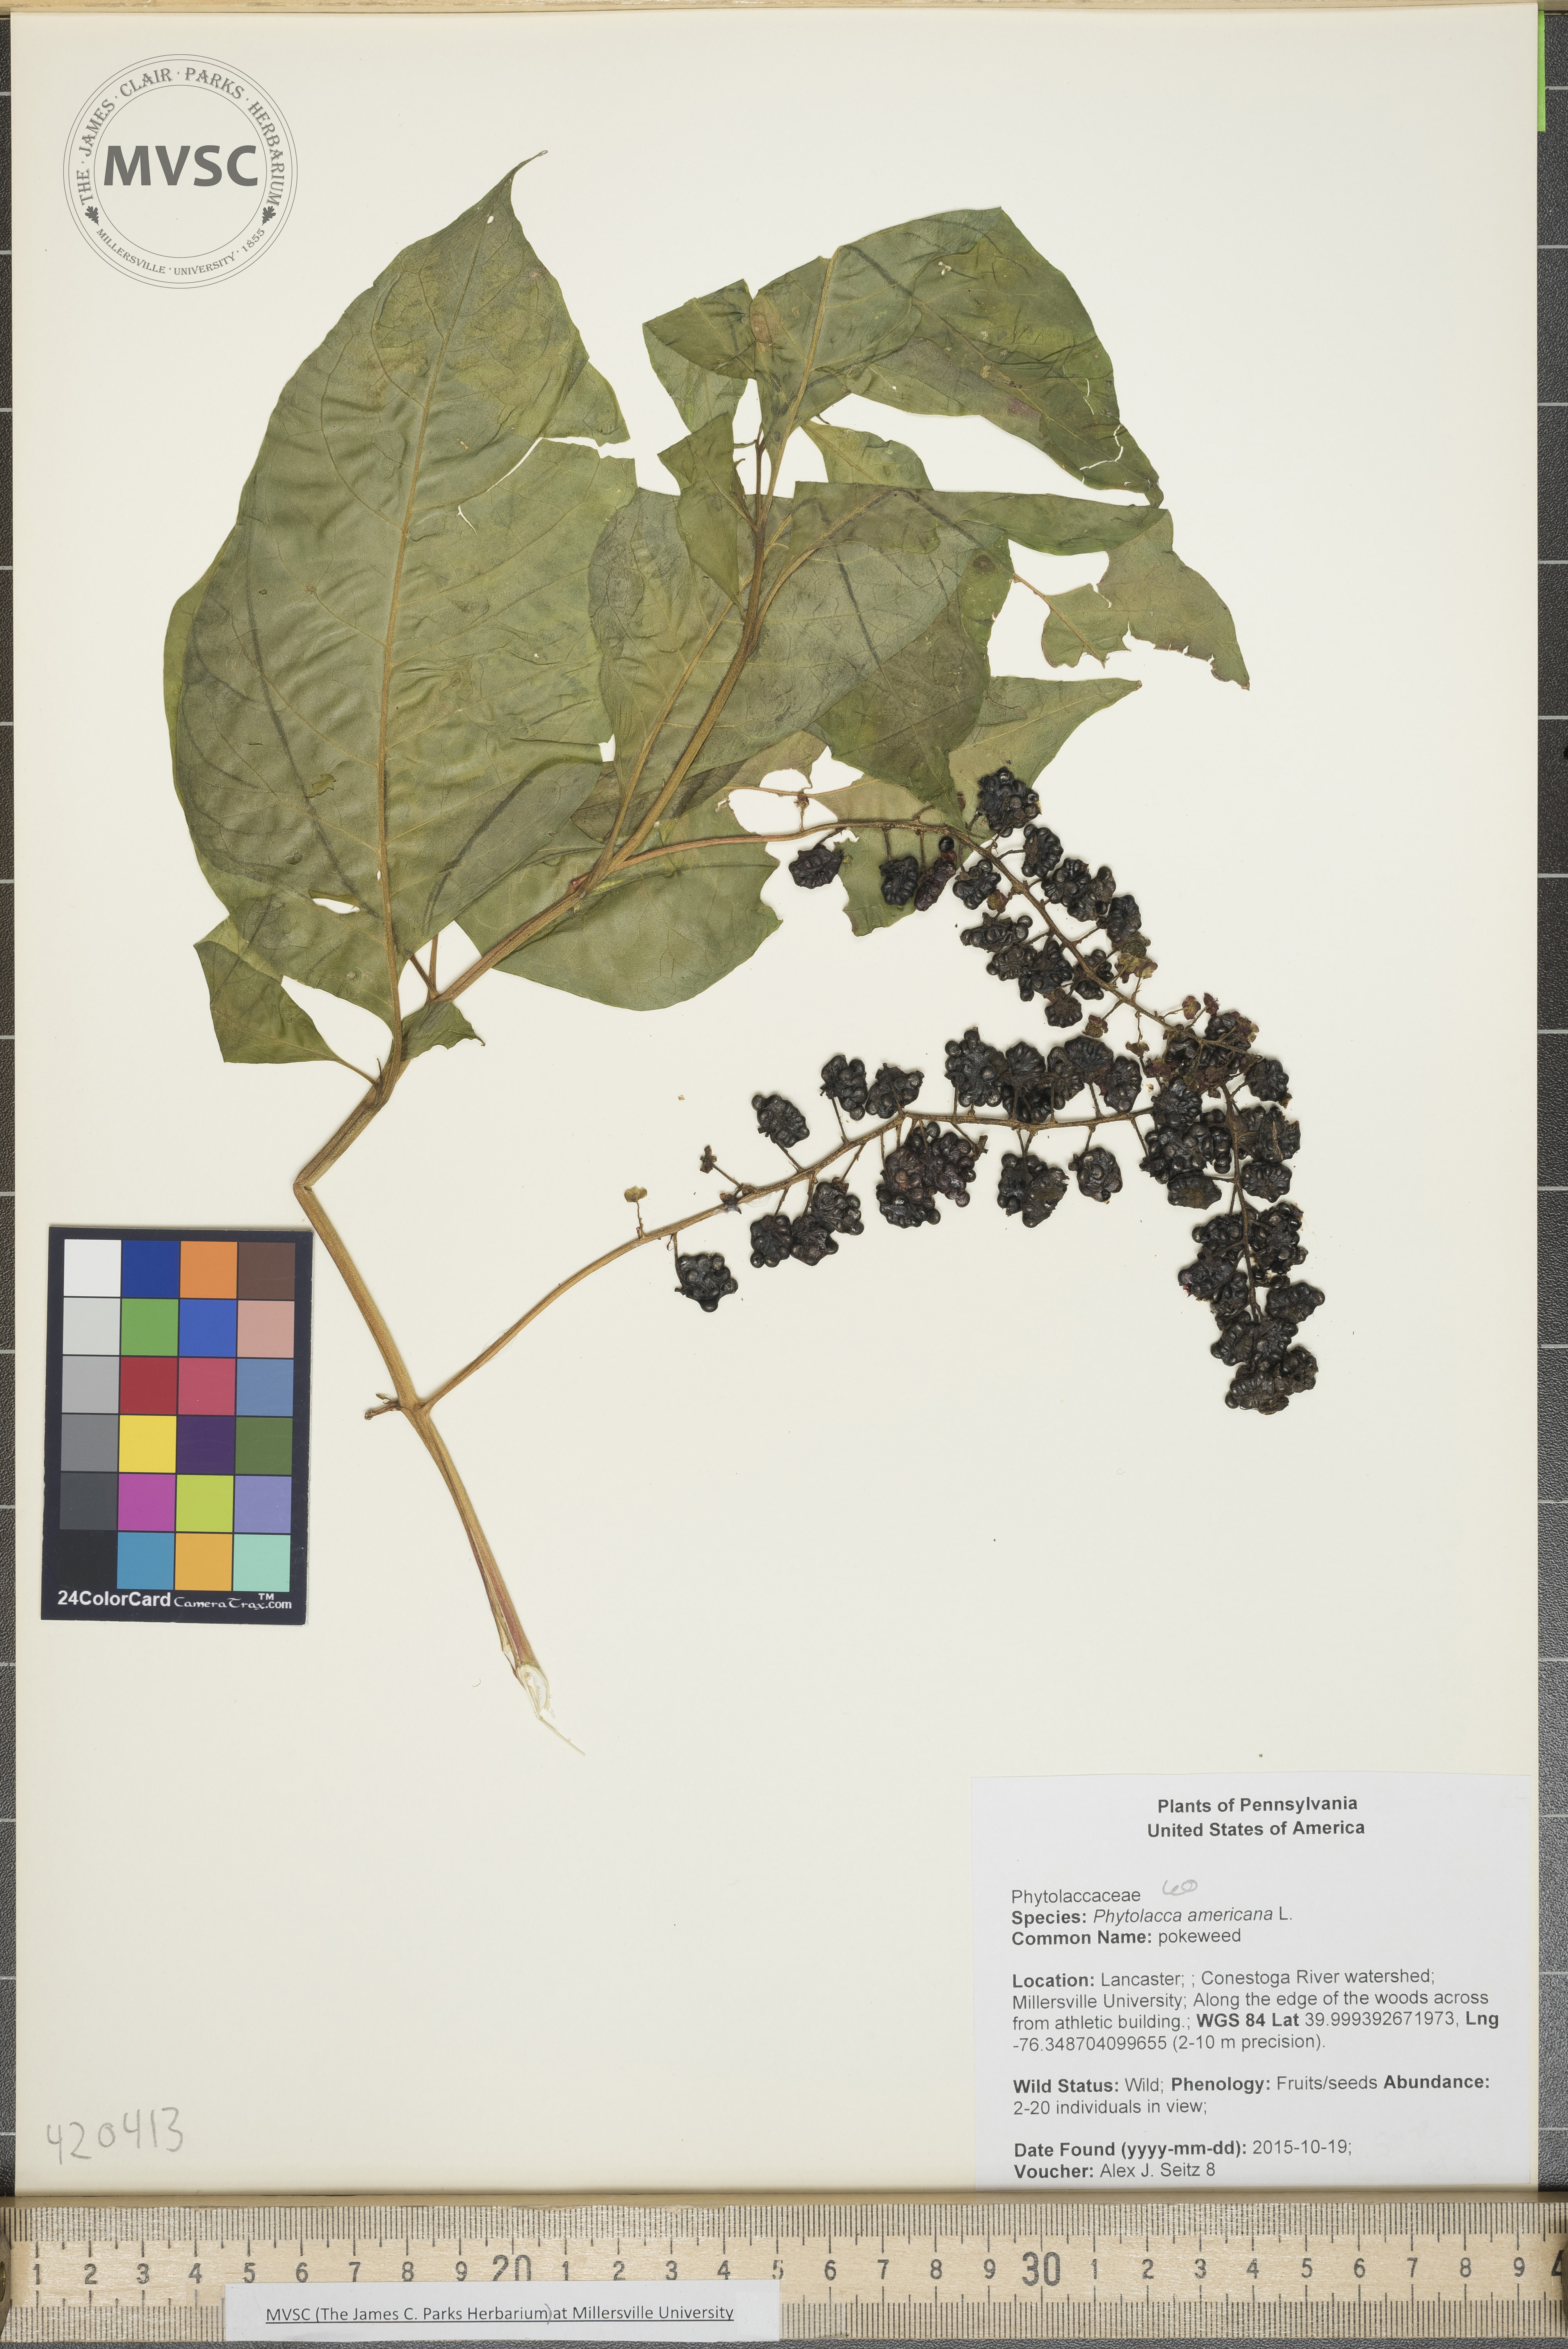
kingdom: Plantae
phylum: Tracheophyta
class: Magnoliopsida
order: Caryophyllales
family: Phytolaccaceae
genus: Phytolacca
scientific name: Phytolacca americana
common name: pokeweed
